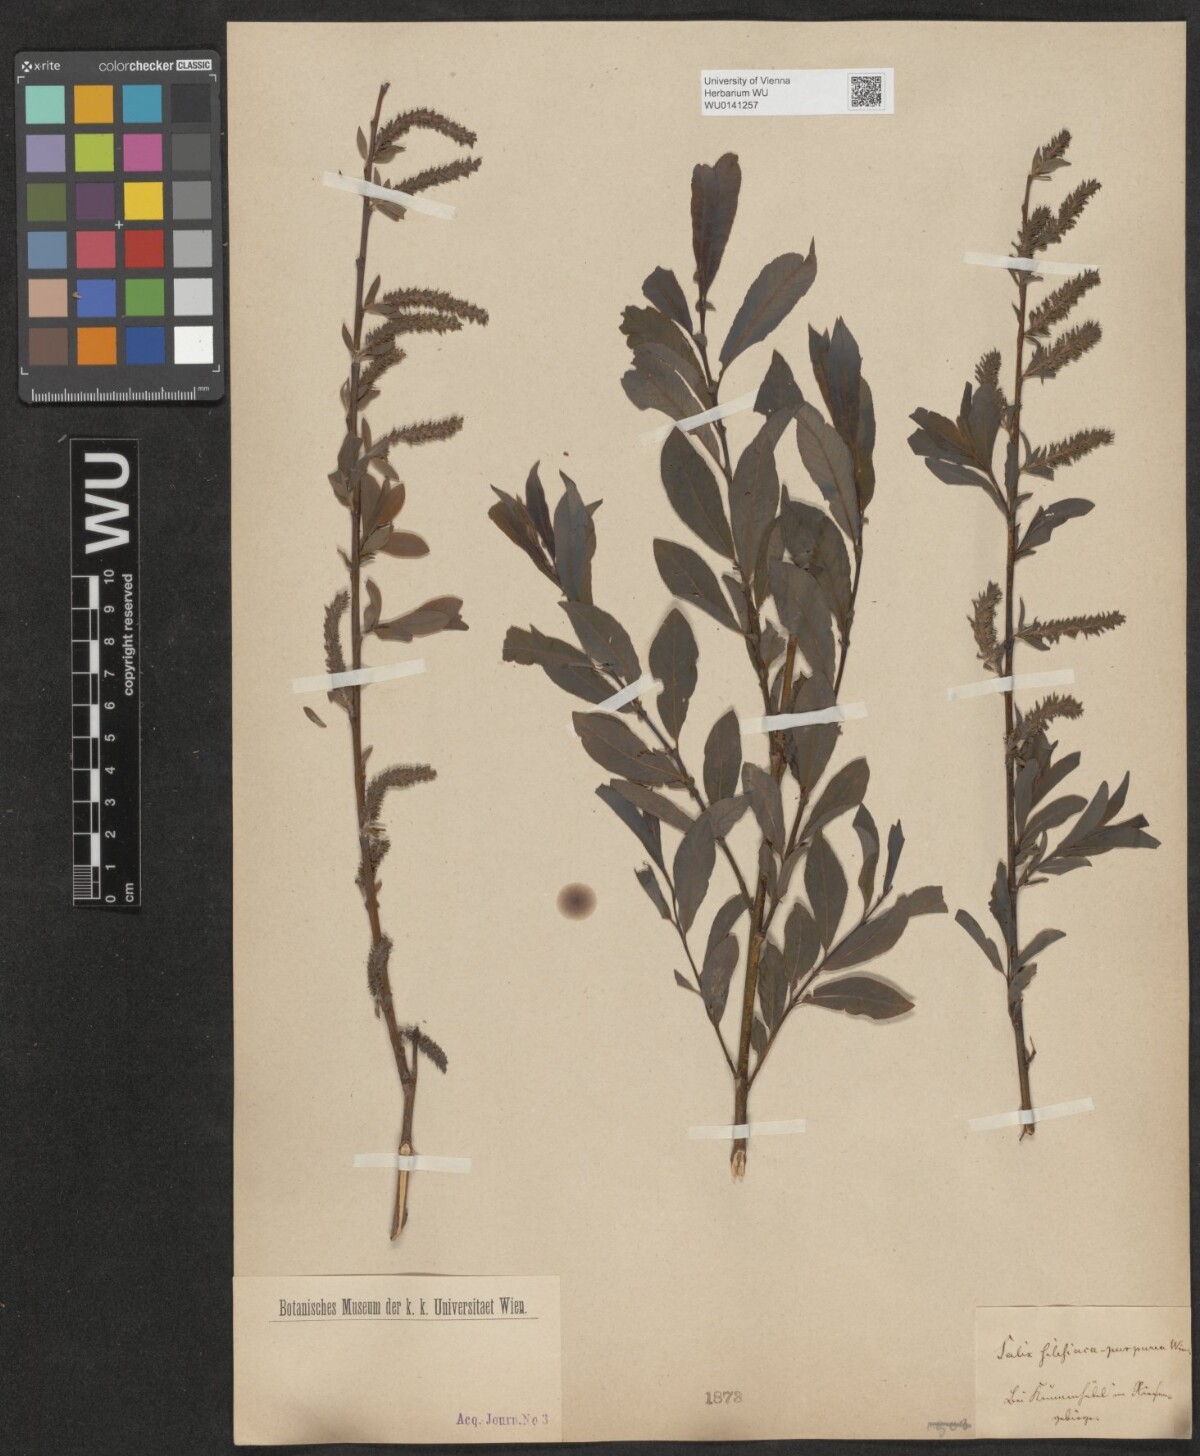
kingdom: Plantae
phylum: Tracheophyta
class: Magnoliopsida
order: Malpighiales
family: Salicaceae
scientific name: Salicaceae
